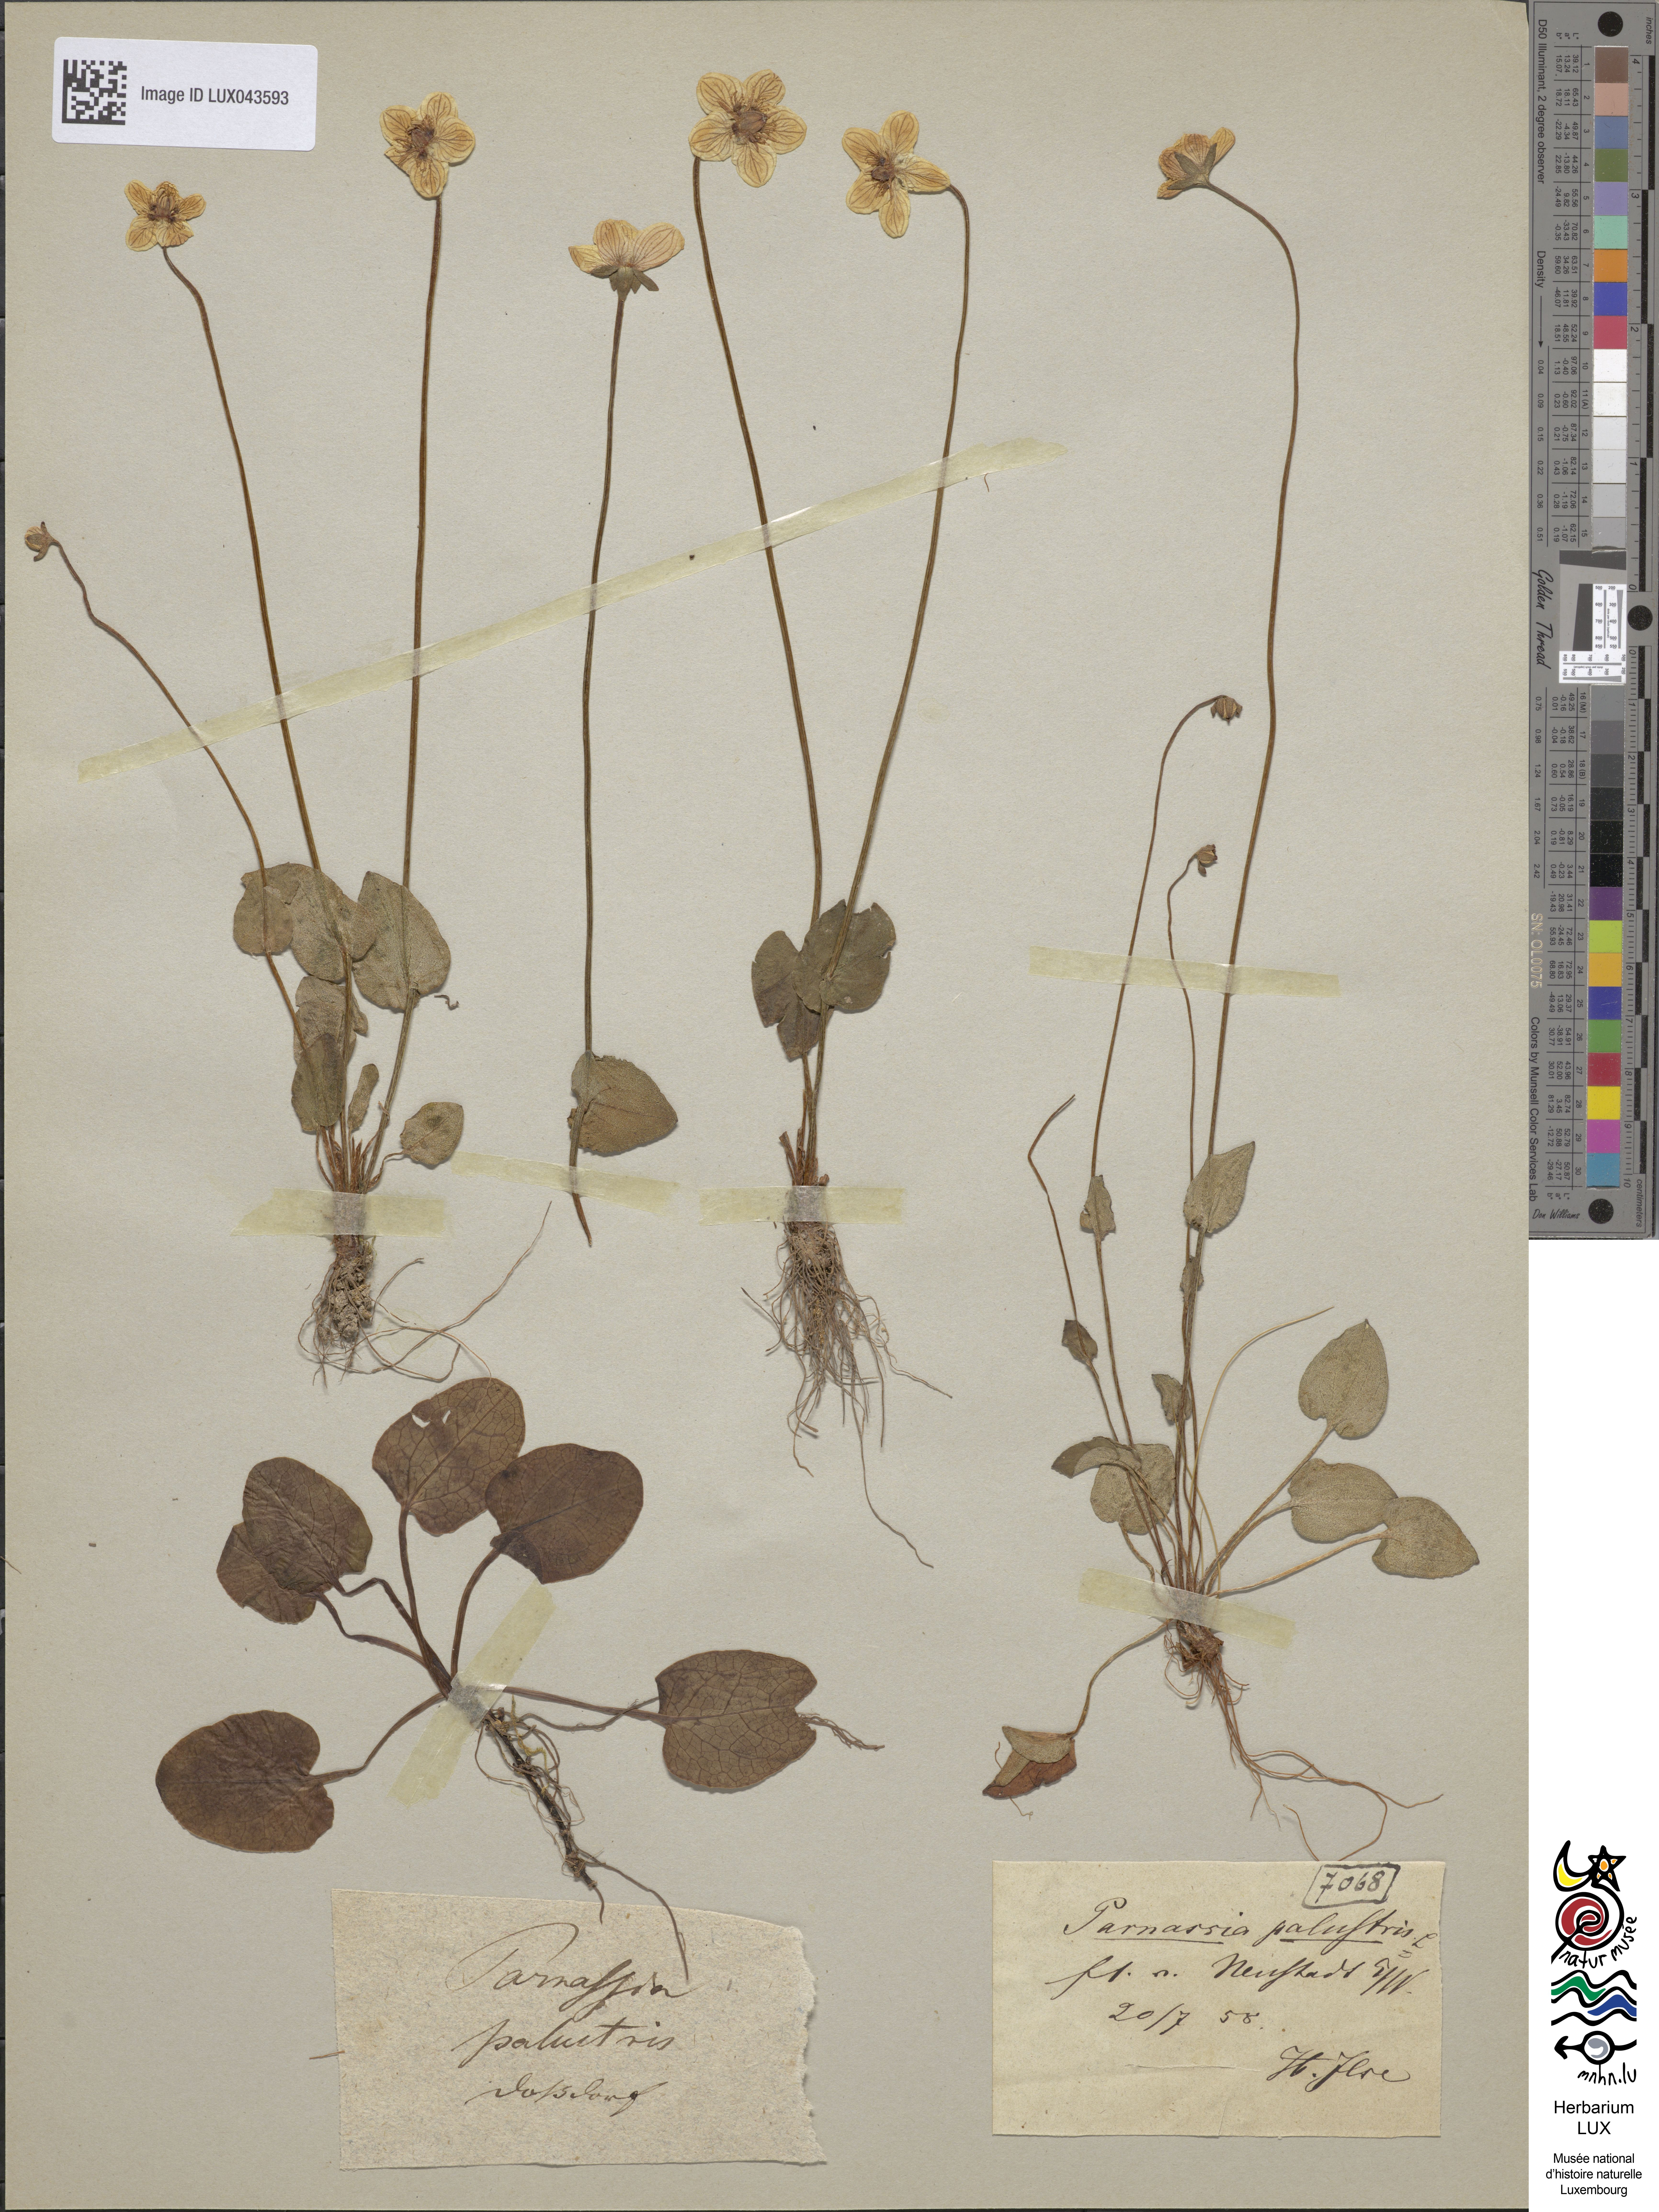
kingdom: Plantae
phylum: Tracheophyta
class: Magnoliopsida
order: Celastrales
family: Parnassiaceae
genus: Parnassia
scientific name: Parnassia palustris
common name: Grass-of-parnassus
